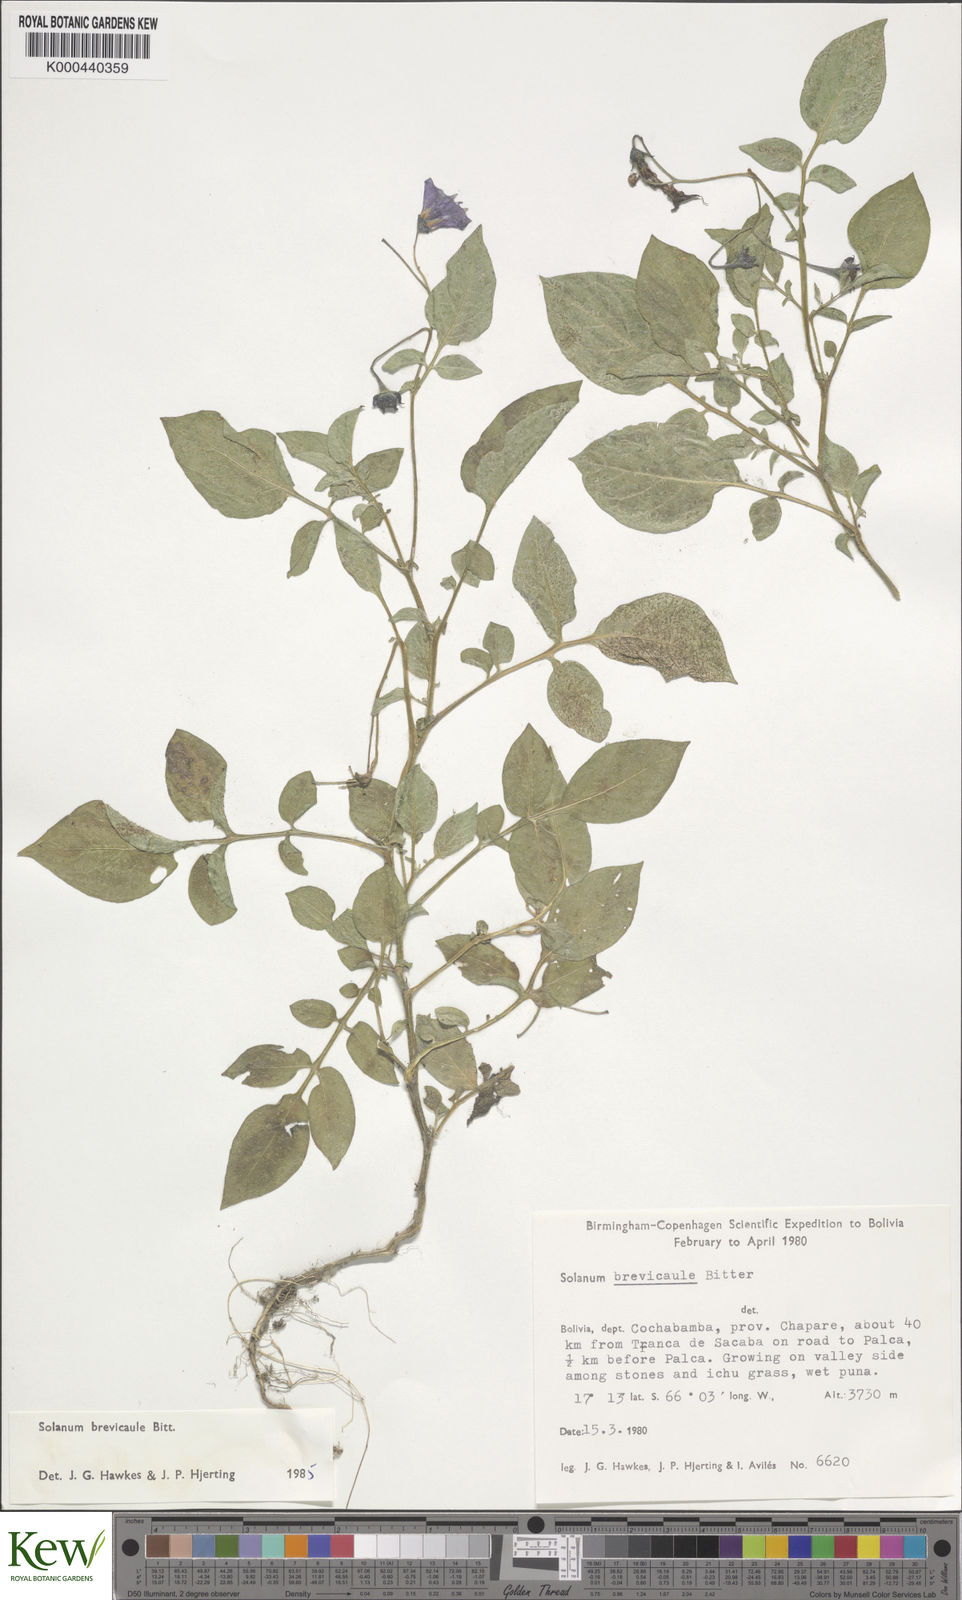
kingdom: Plantae
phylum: Tracheophyta
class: Magnoliopsida
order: Solanales
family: Solanaceae
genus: Solanum
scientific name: Solanum brevicaule
